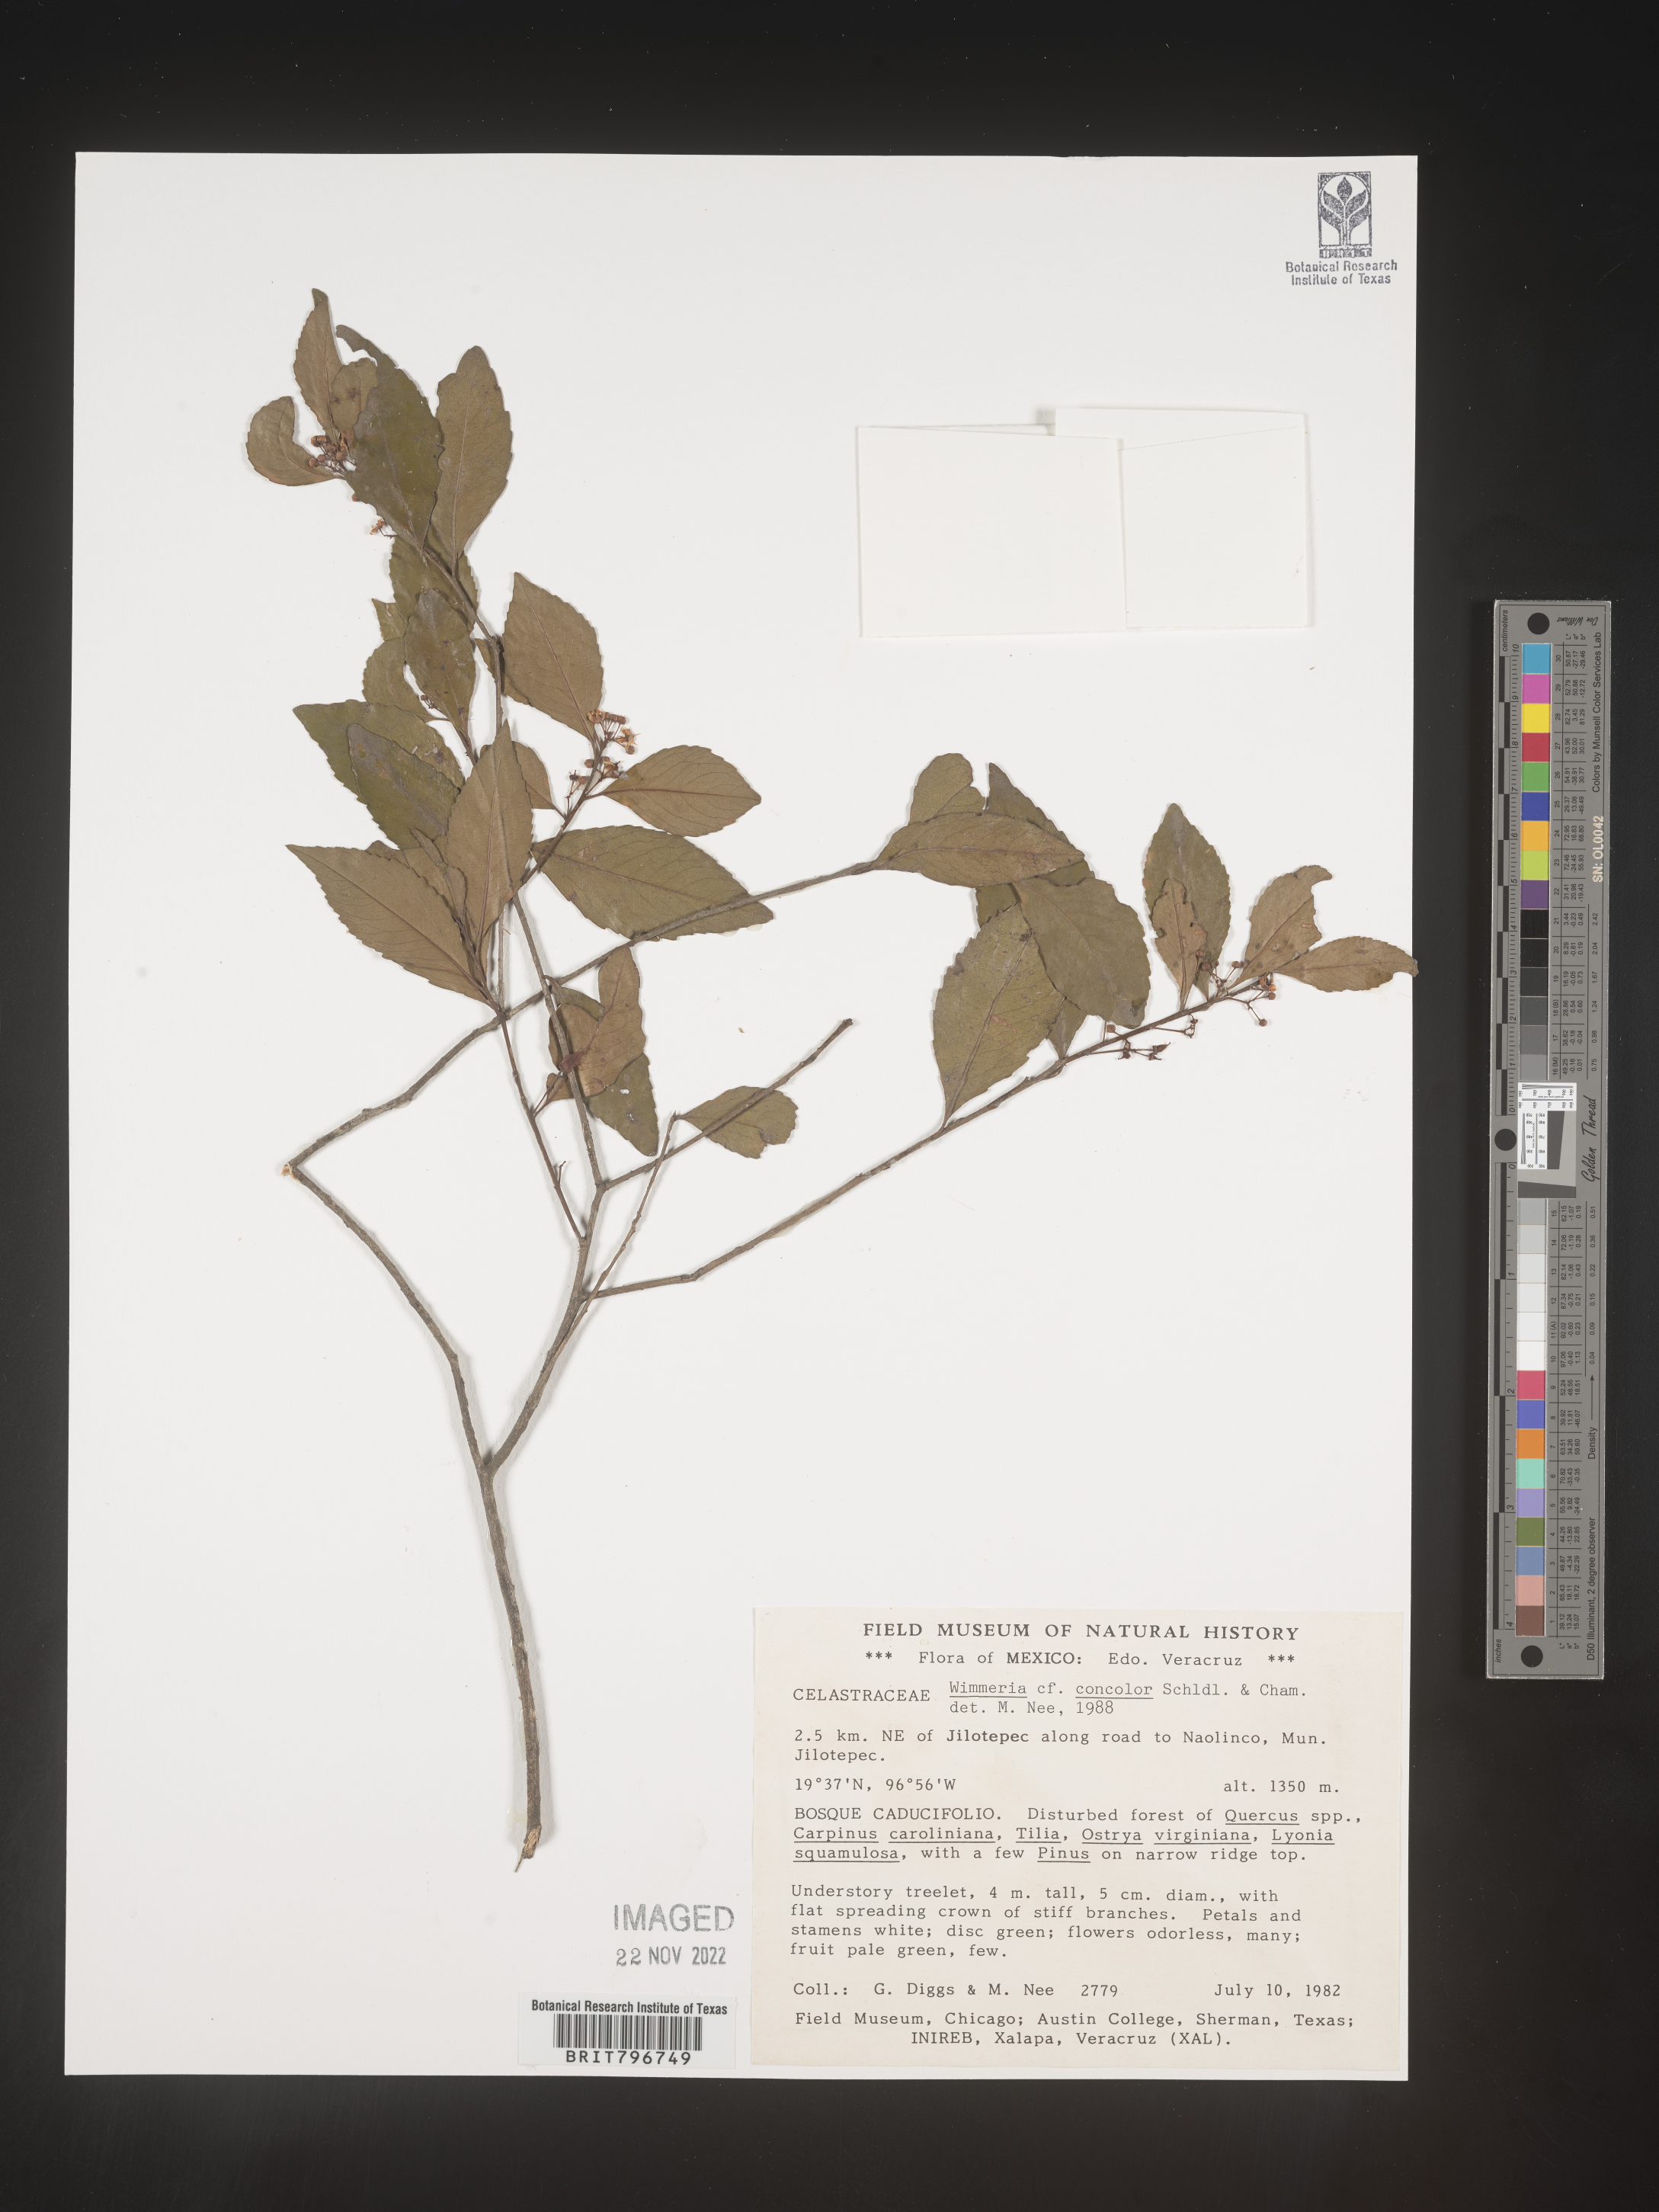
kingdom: Plantae
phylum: Tracheophyta
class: Magnoliopsida
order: Celastrales
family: Celastraceae
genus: Wimmeria
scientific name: Wimmeria
